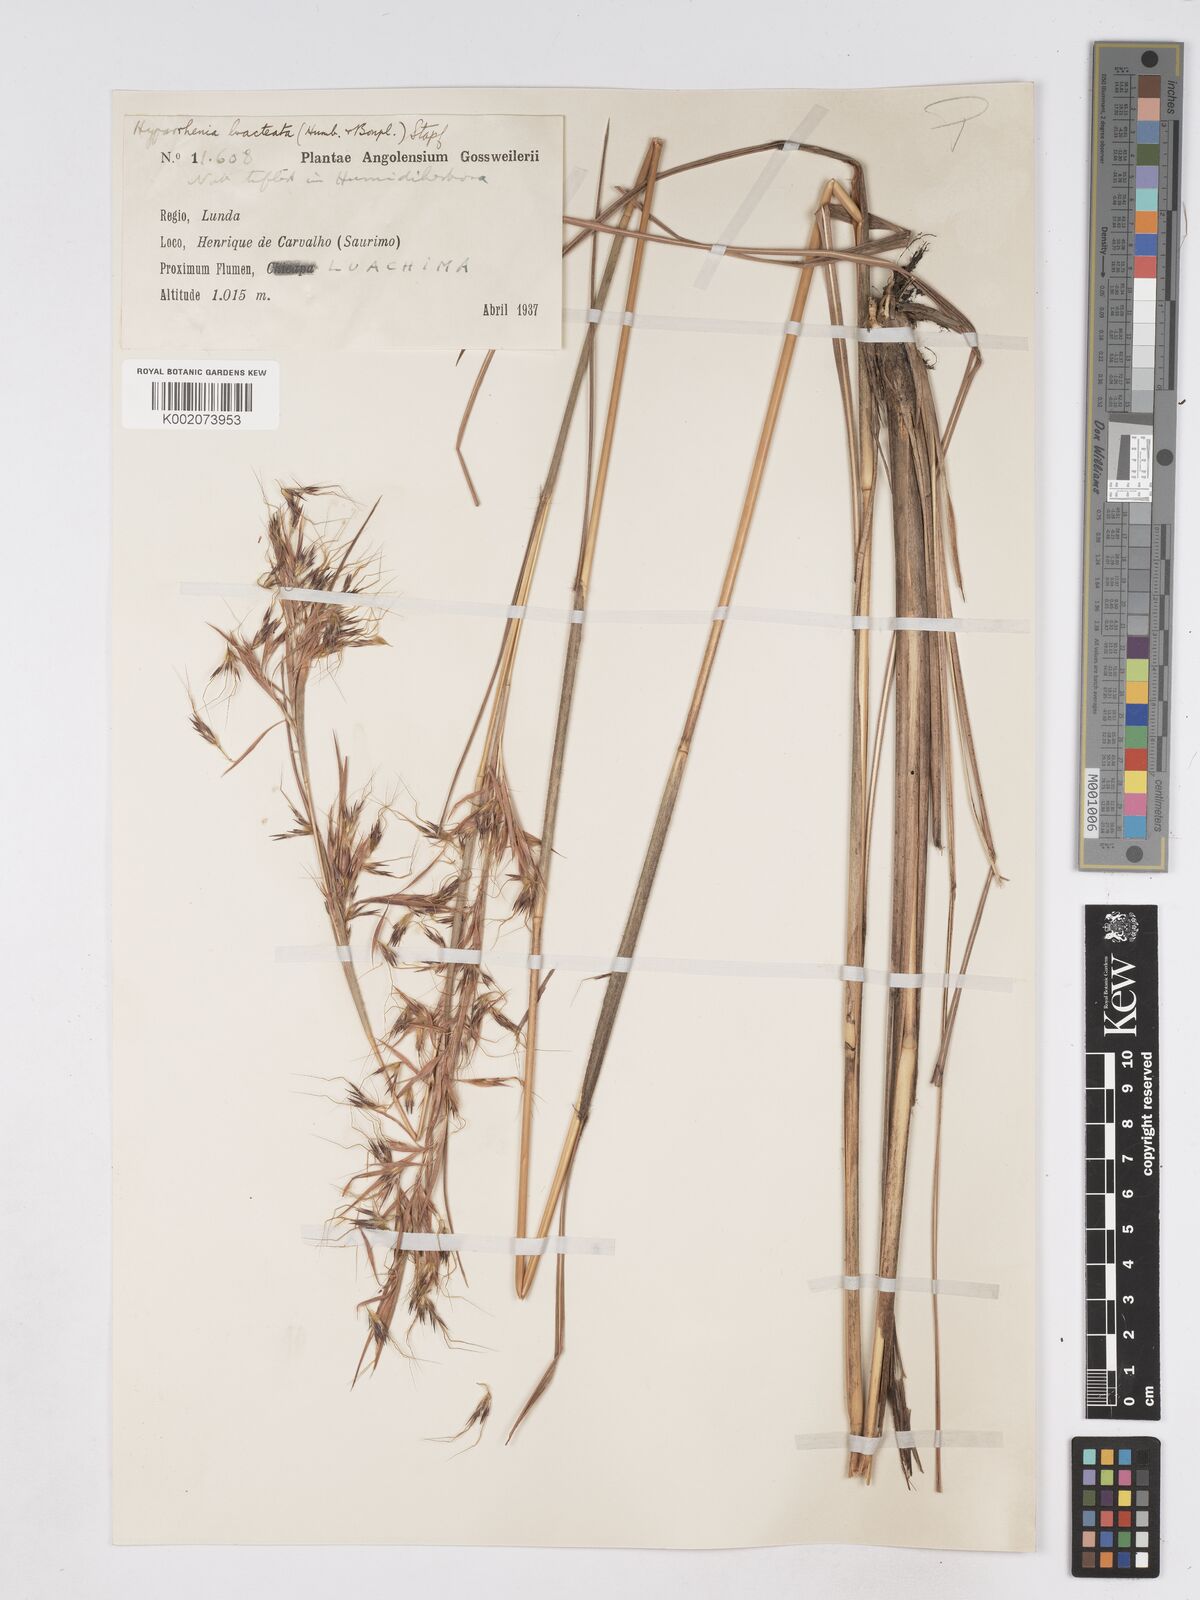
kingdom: Plantae
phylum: Tracheophyta
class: Liliopsida
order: Poales
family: Poaceae
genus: Hyparrhenia
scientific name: Hyparrhenia bracteata
